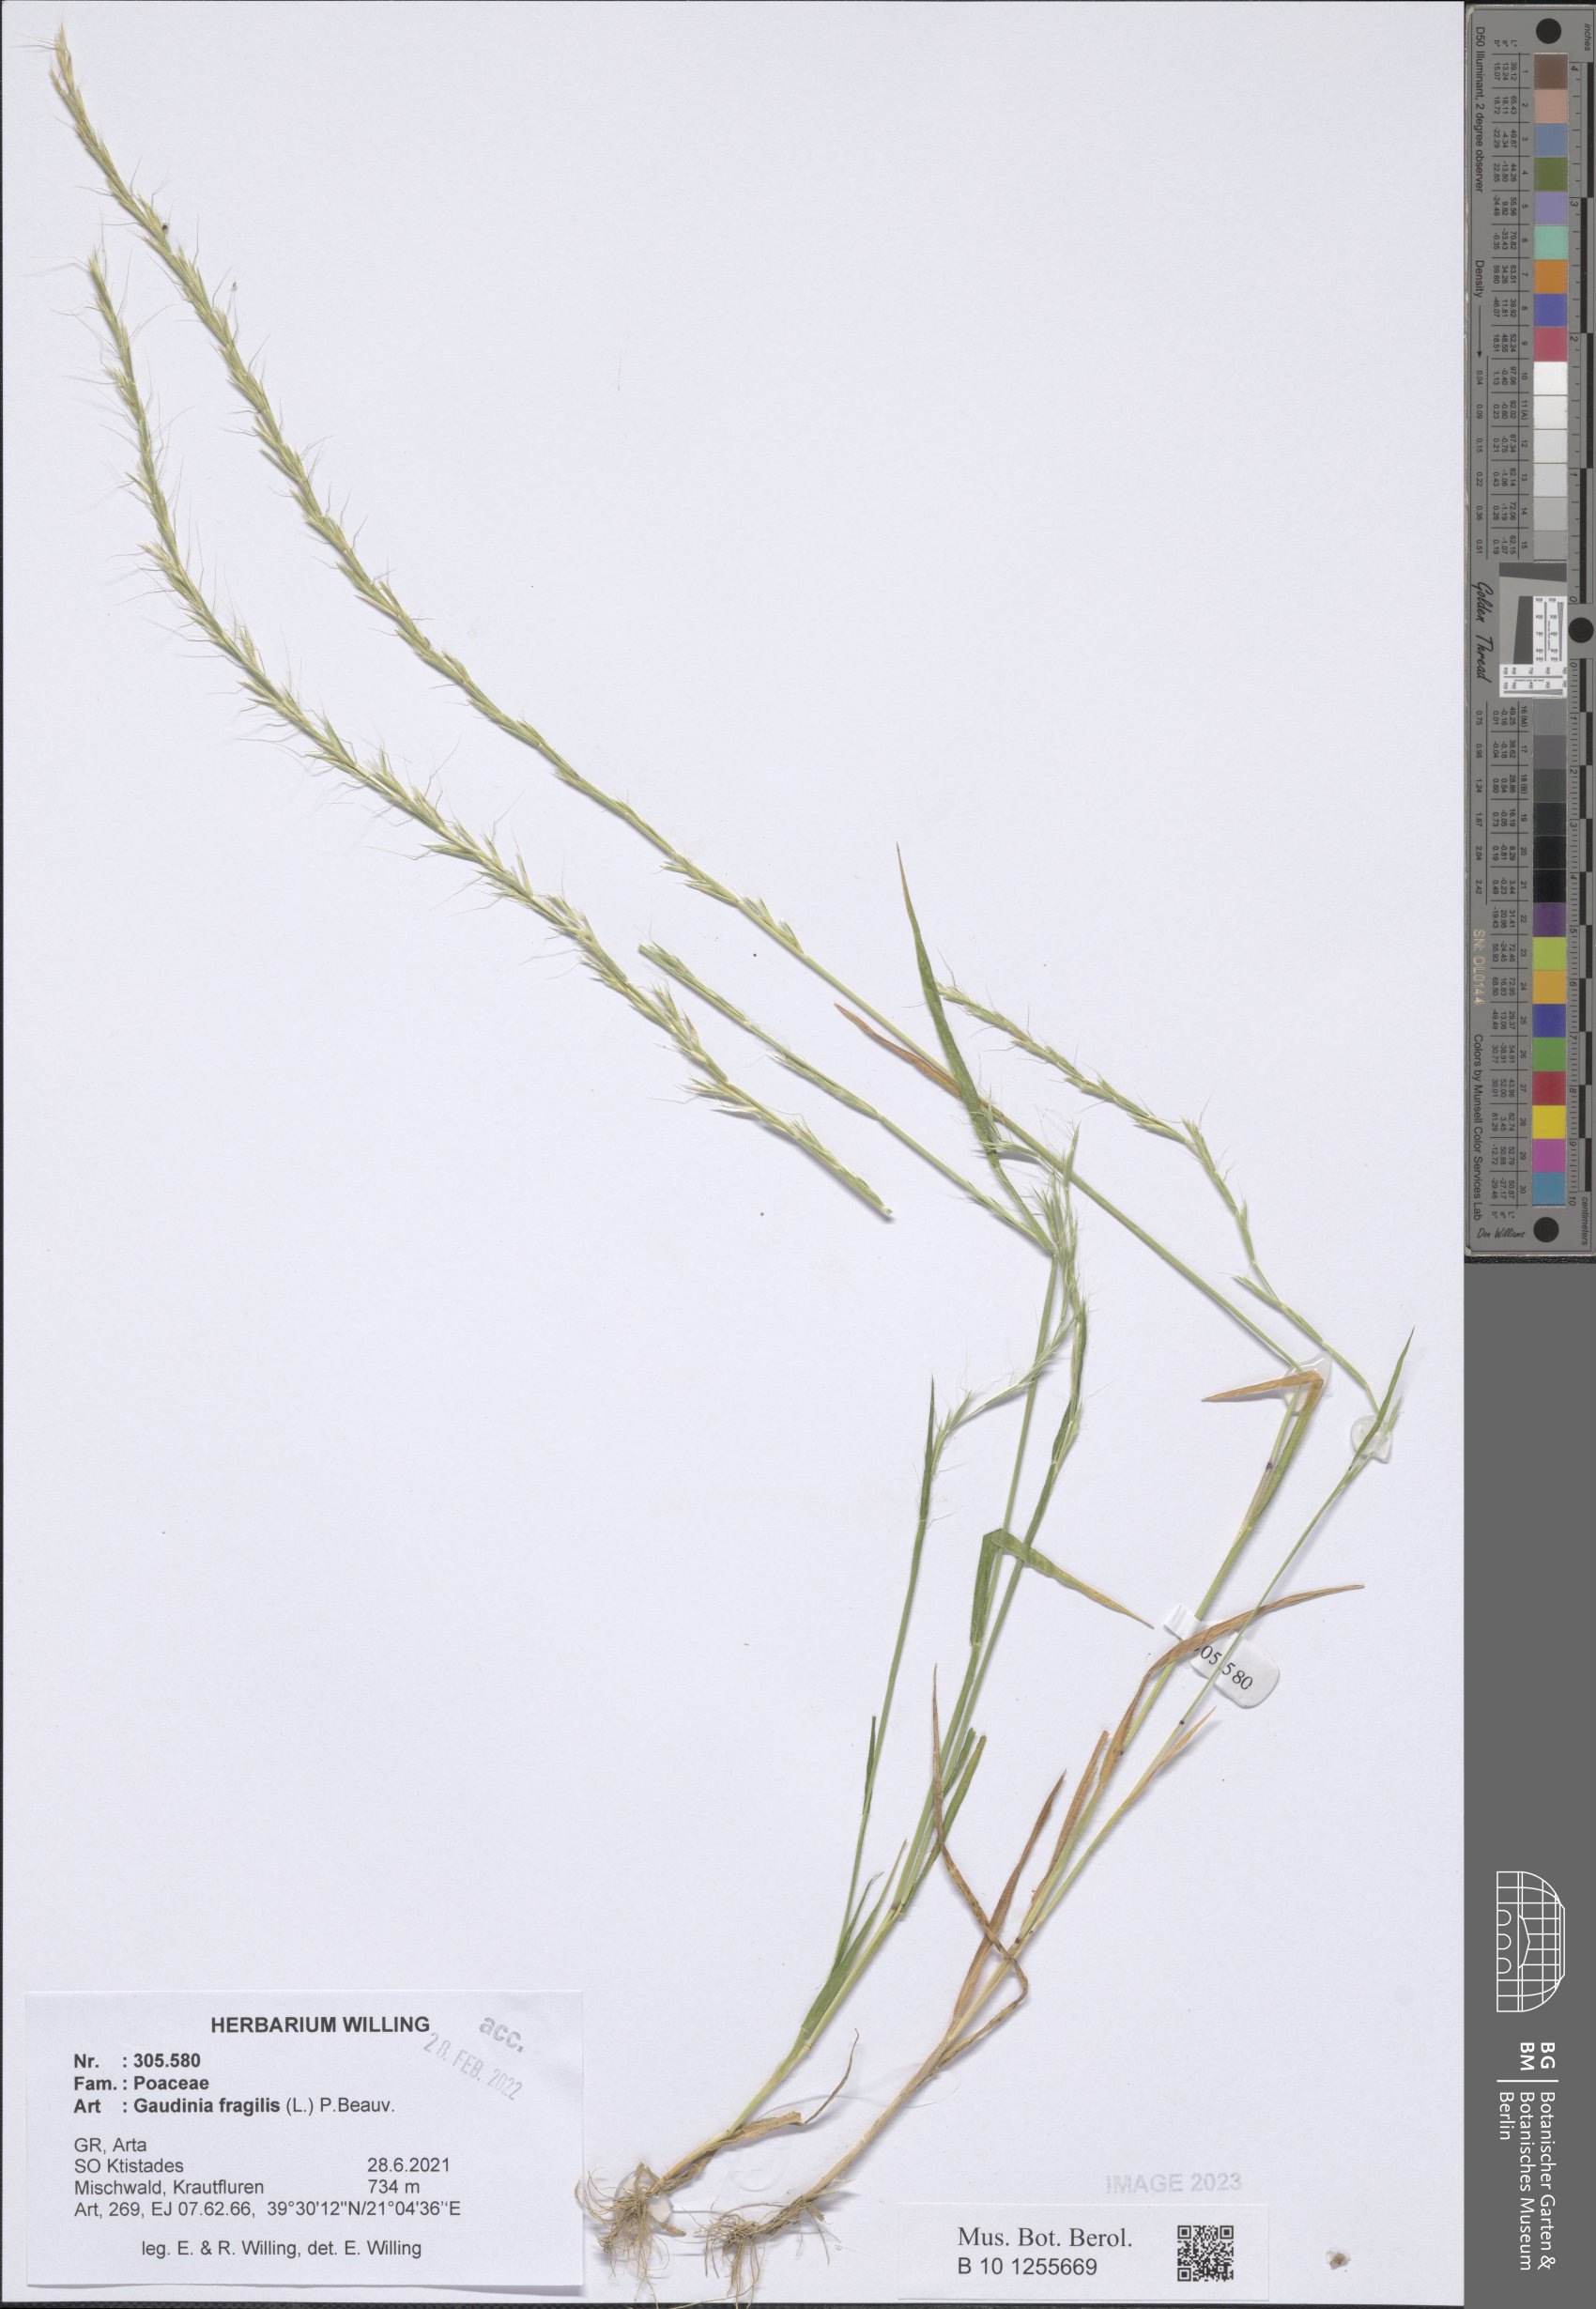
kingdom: Plantae
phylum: Tracheophyta
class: Liliopsida
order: Poales
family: Poaceae
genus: Gaudinia
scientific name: Gaudinia fragilis
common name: French oat-grass
